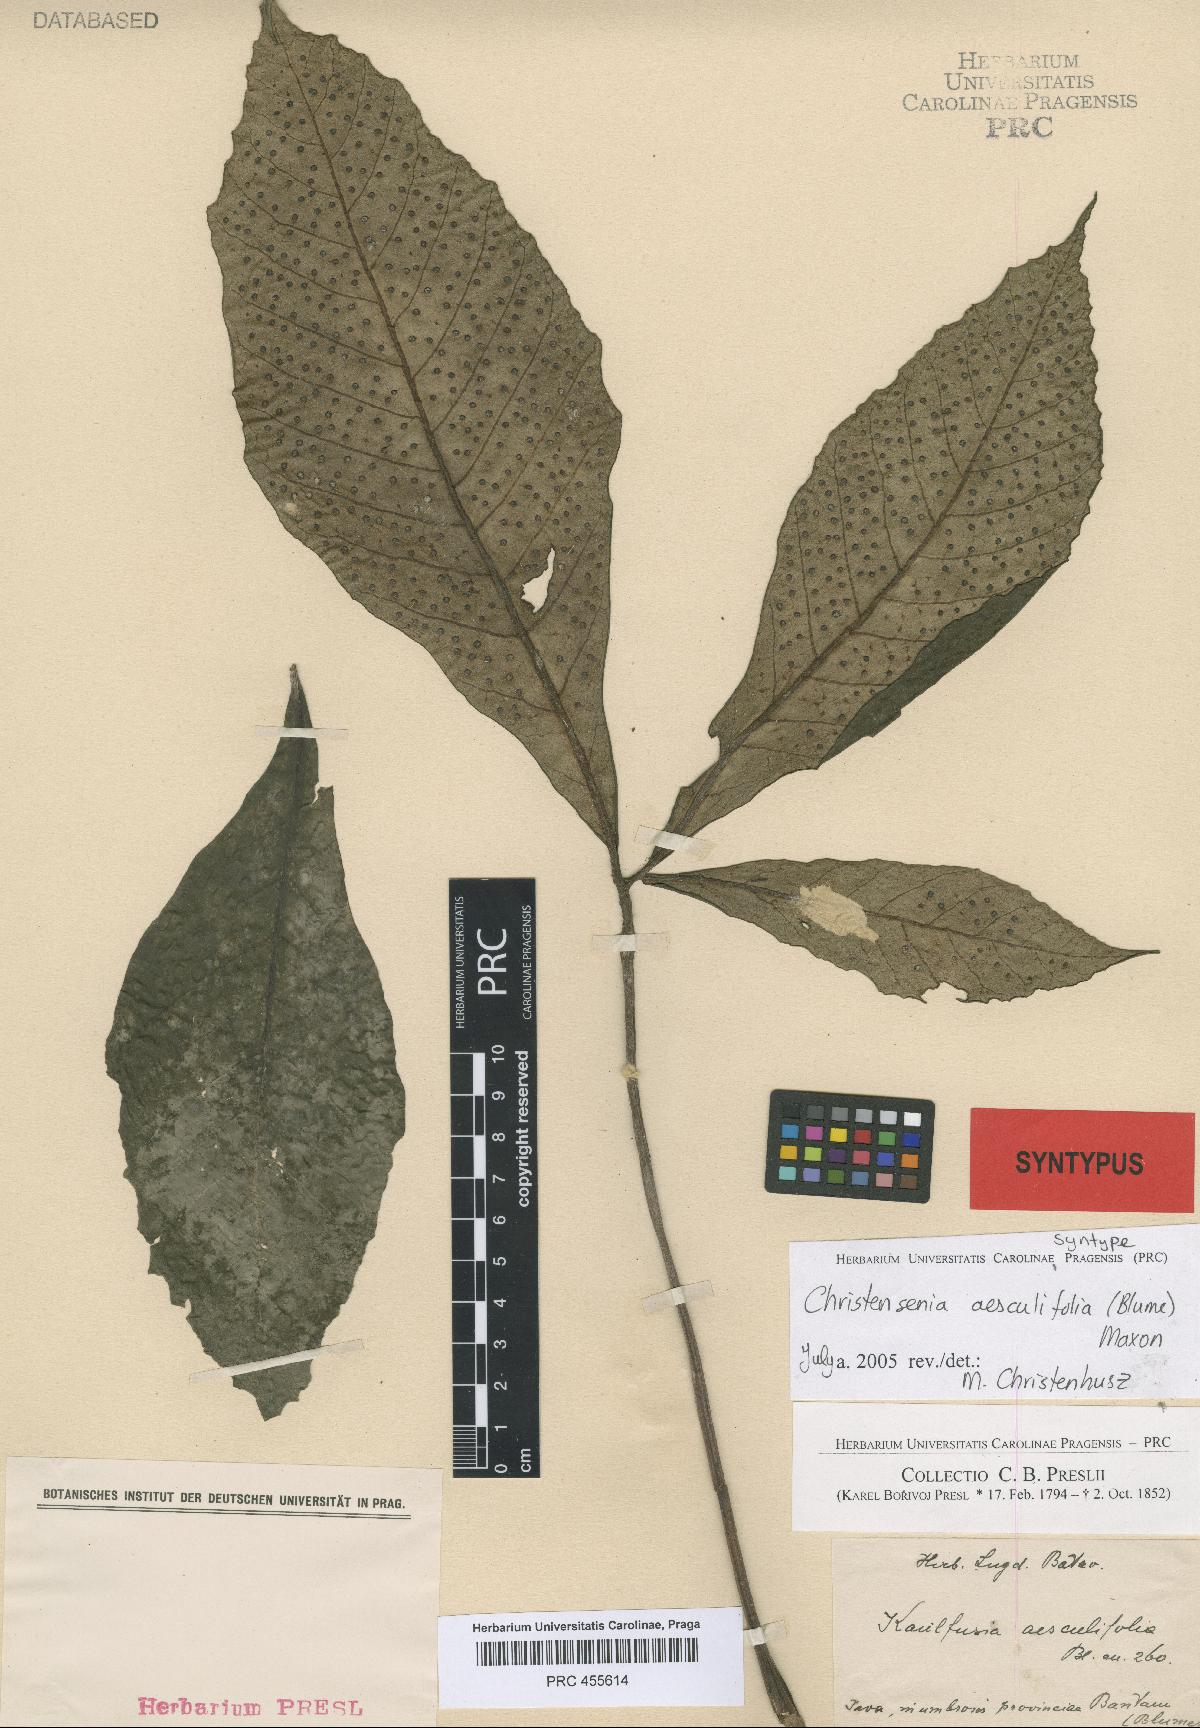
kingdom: Plantae
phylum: Tracheophyta
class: Polypodiopsida
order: Marattiales
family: Marattiaceae
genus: Christensenia
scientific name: Christensenia aesculifolia
